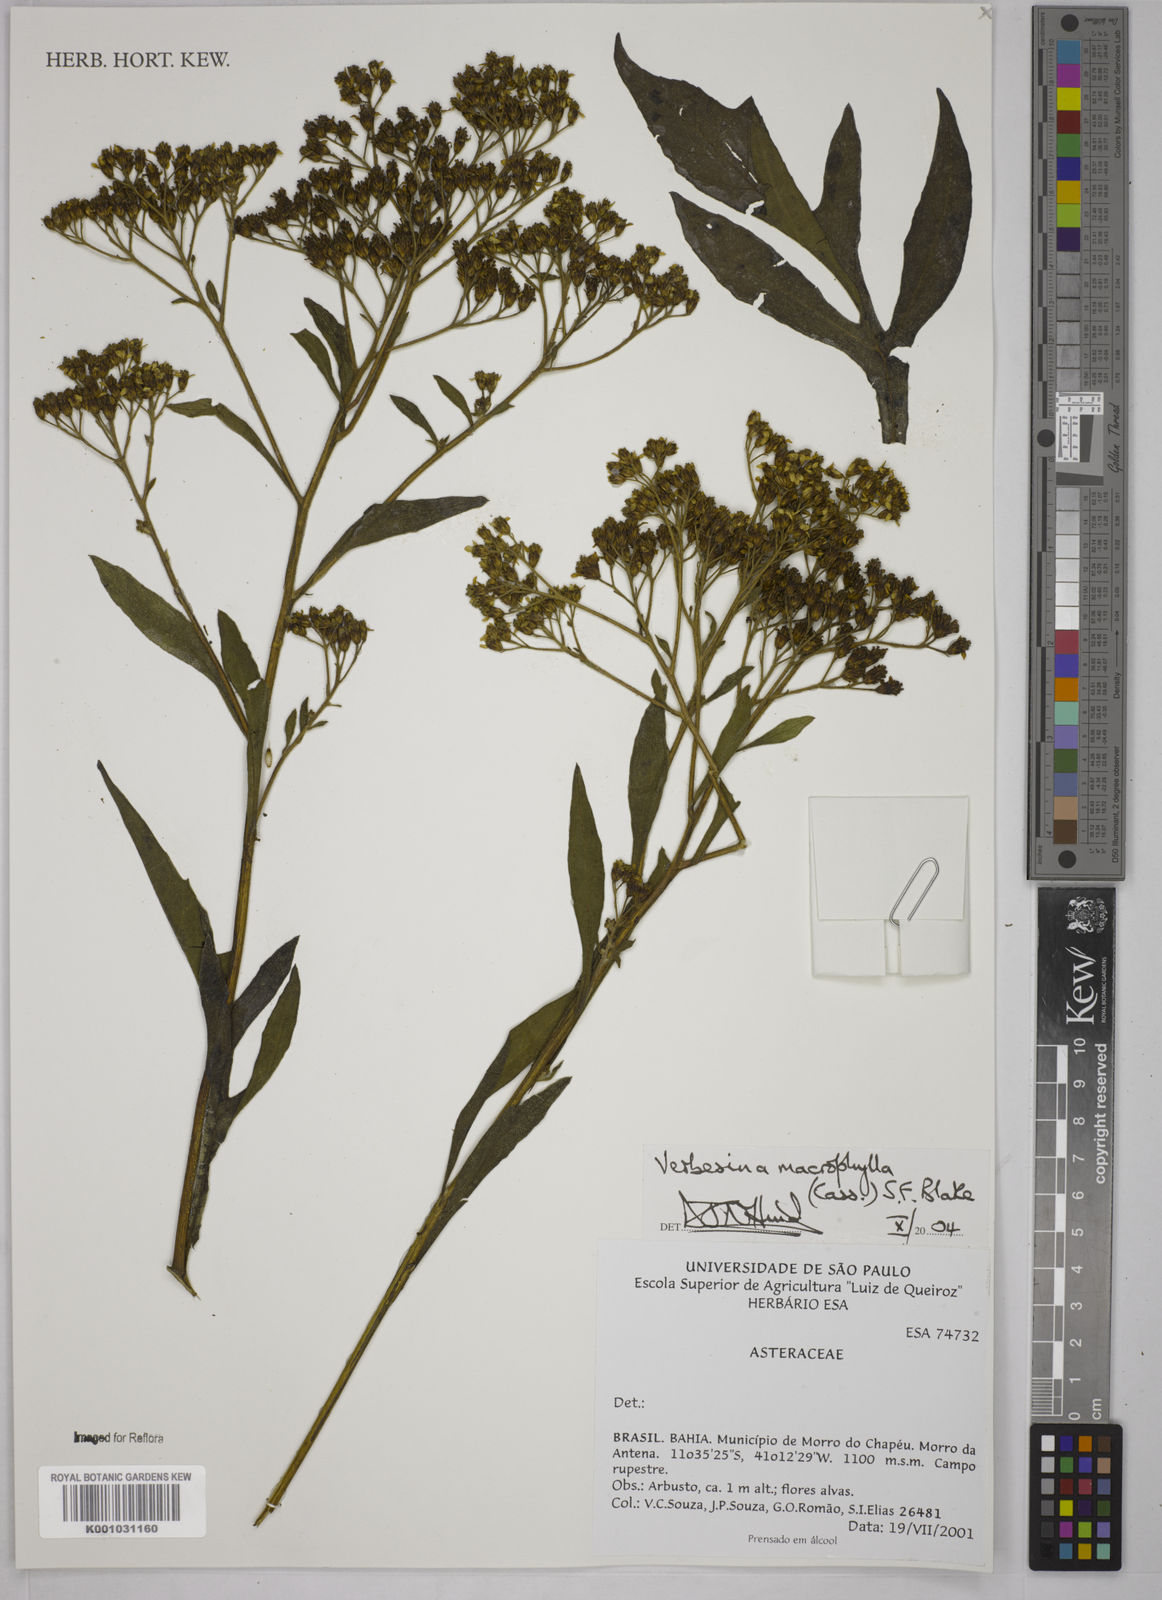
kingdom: Plantae
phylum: Tracheophyta
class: Magnoliopsida
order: Asterales
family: Asteraceae
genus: Verbesina
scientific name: Verbesina macrophylla
